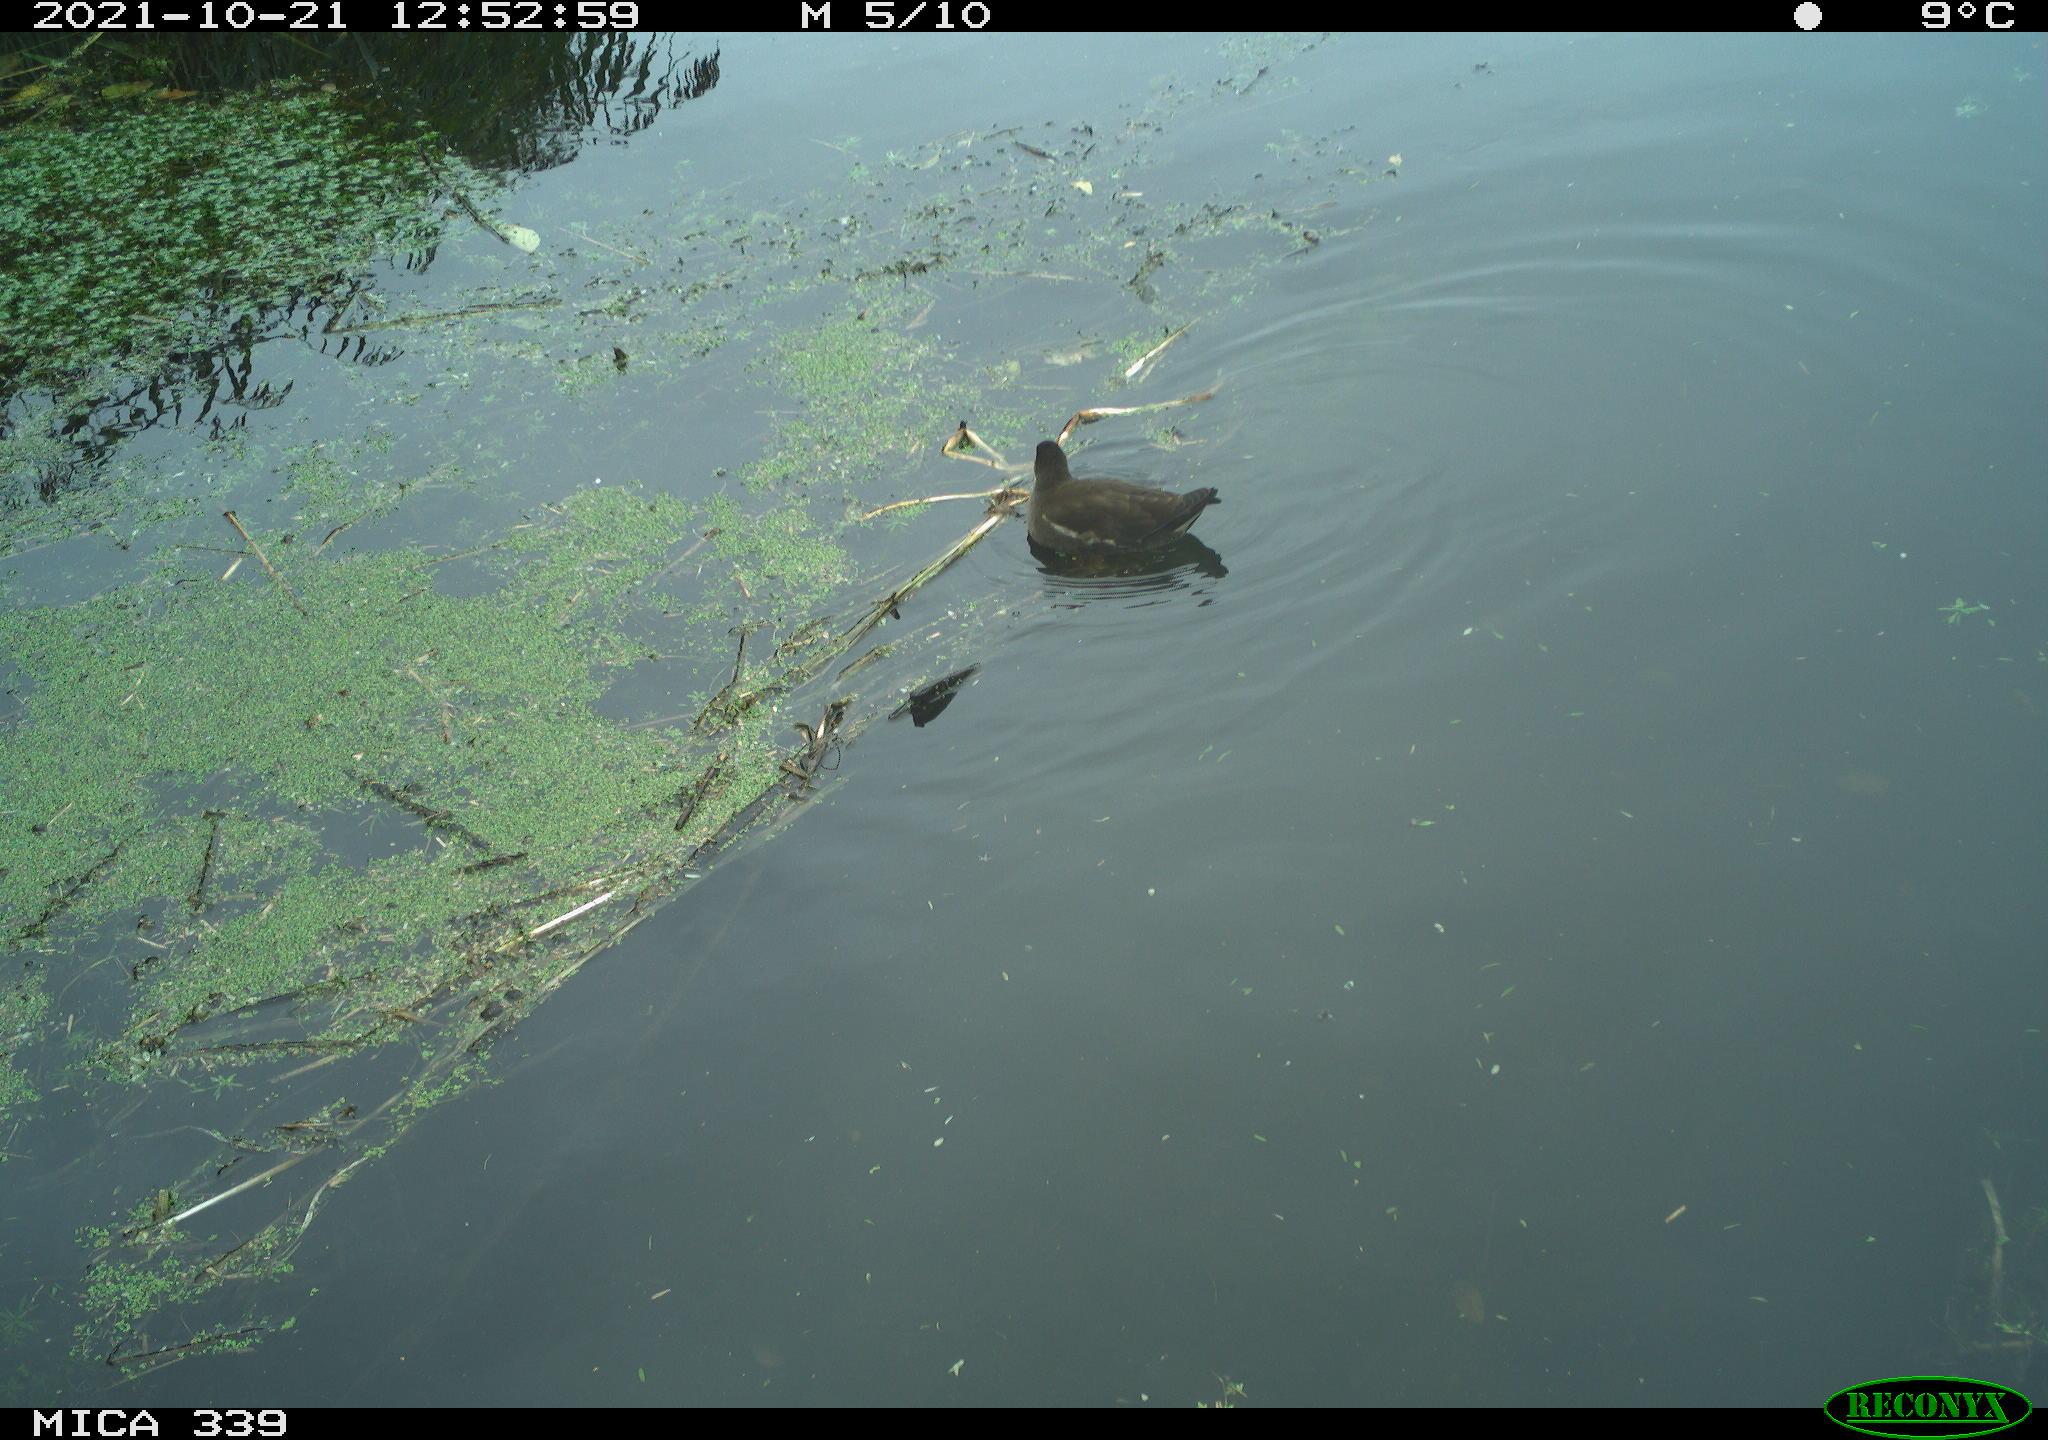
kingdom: Animalia
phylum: Chordata
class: Aves
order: Gruiformes
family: Rallidae
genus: Gallinula
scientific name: Gallinula chloropus
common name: Common moorhen
